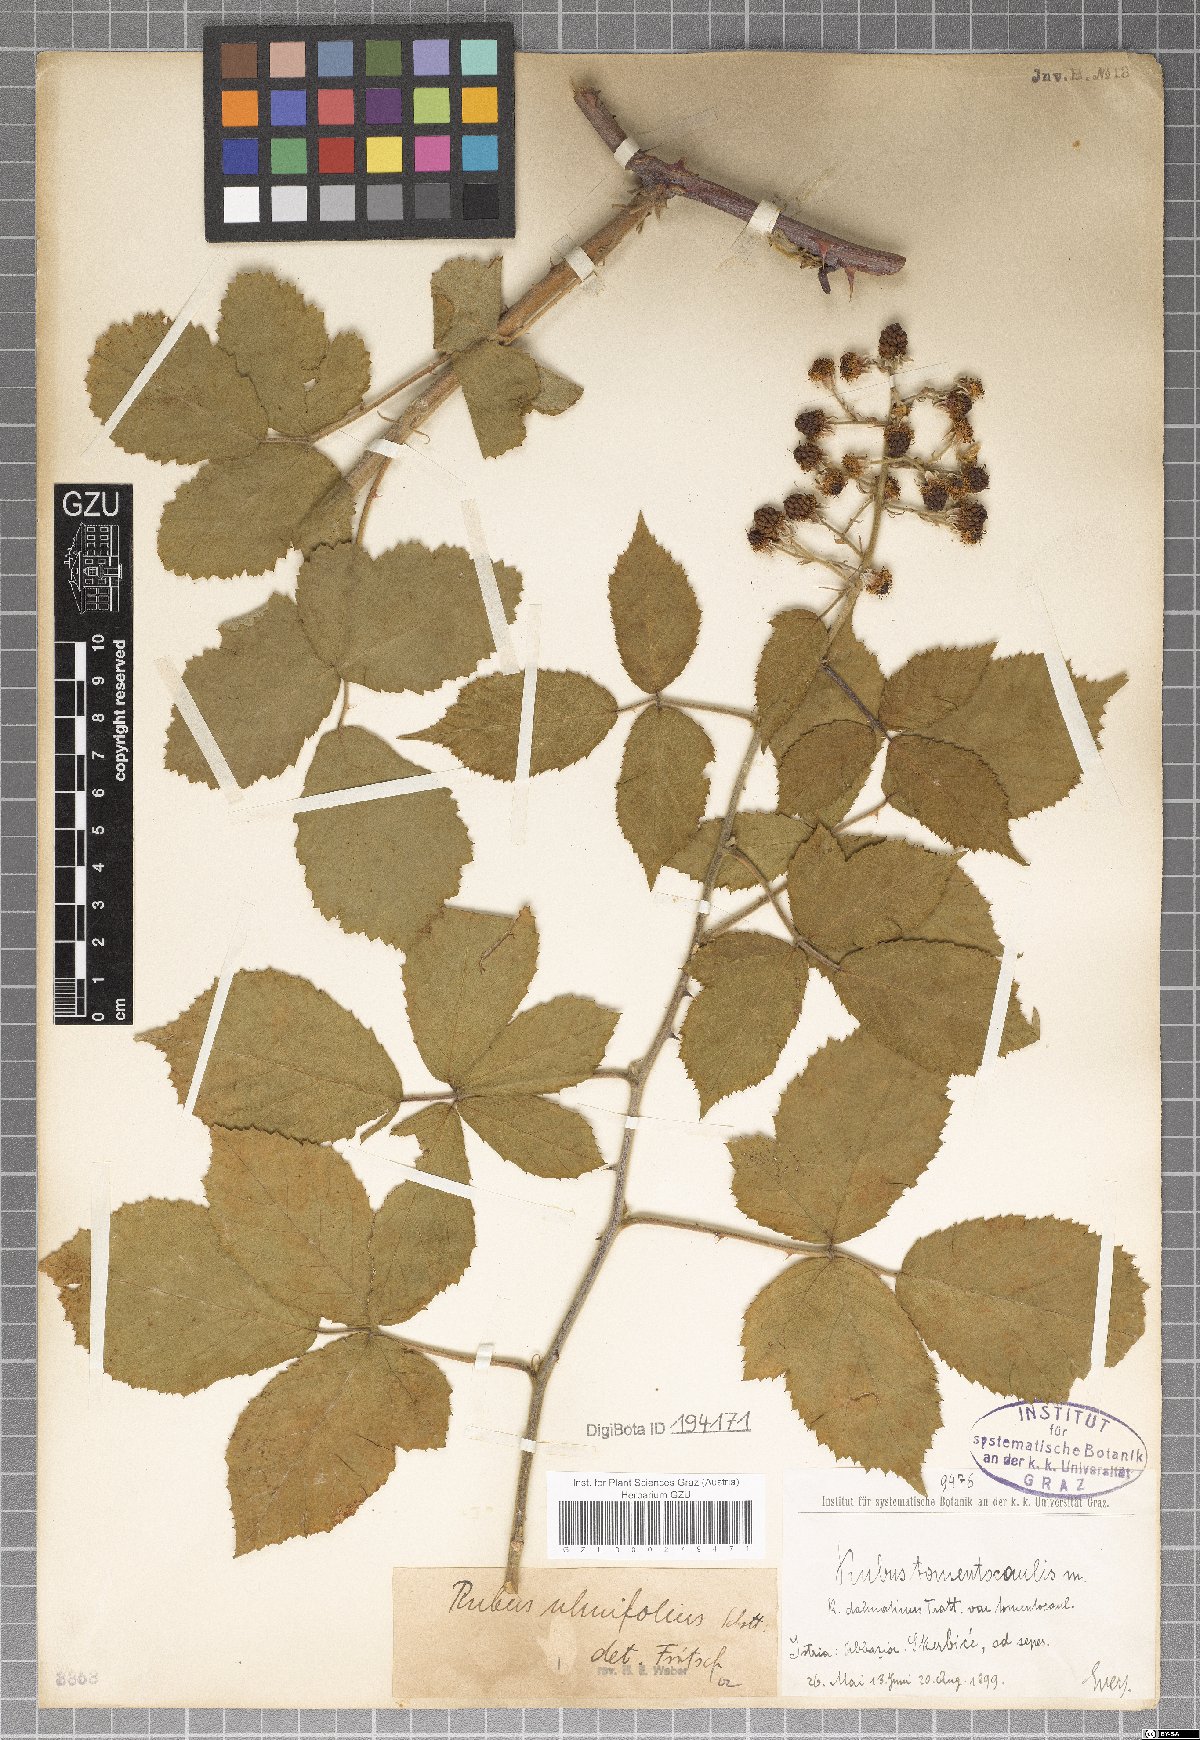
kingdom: Plantae
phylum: Tracheophyta
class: Magnoliopsida
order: Rosales
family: Rosaceae
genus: Rubus
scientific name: Rubus tomentocaulis
